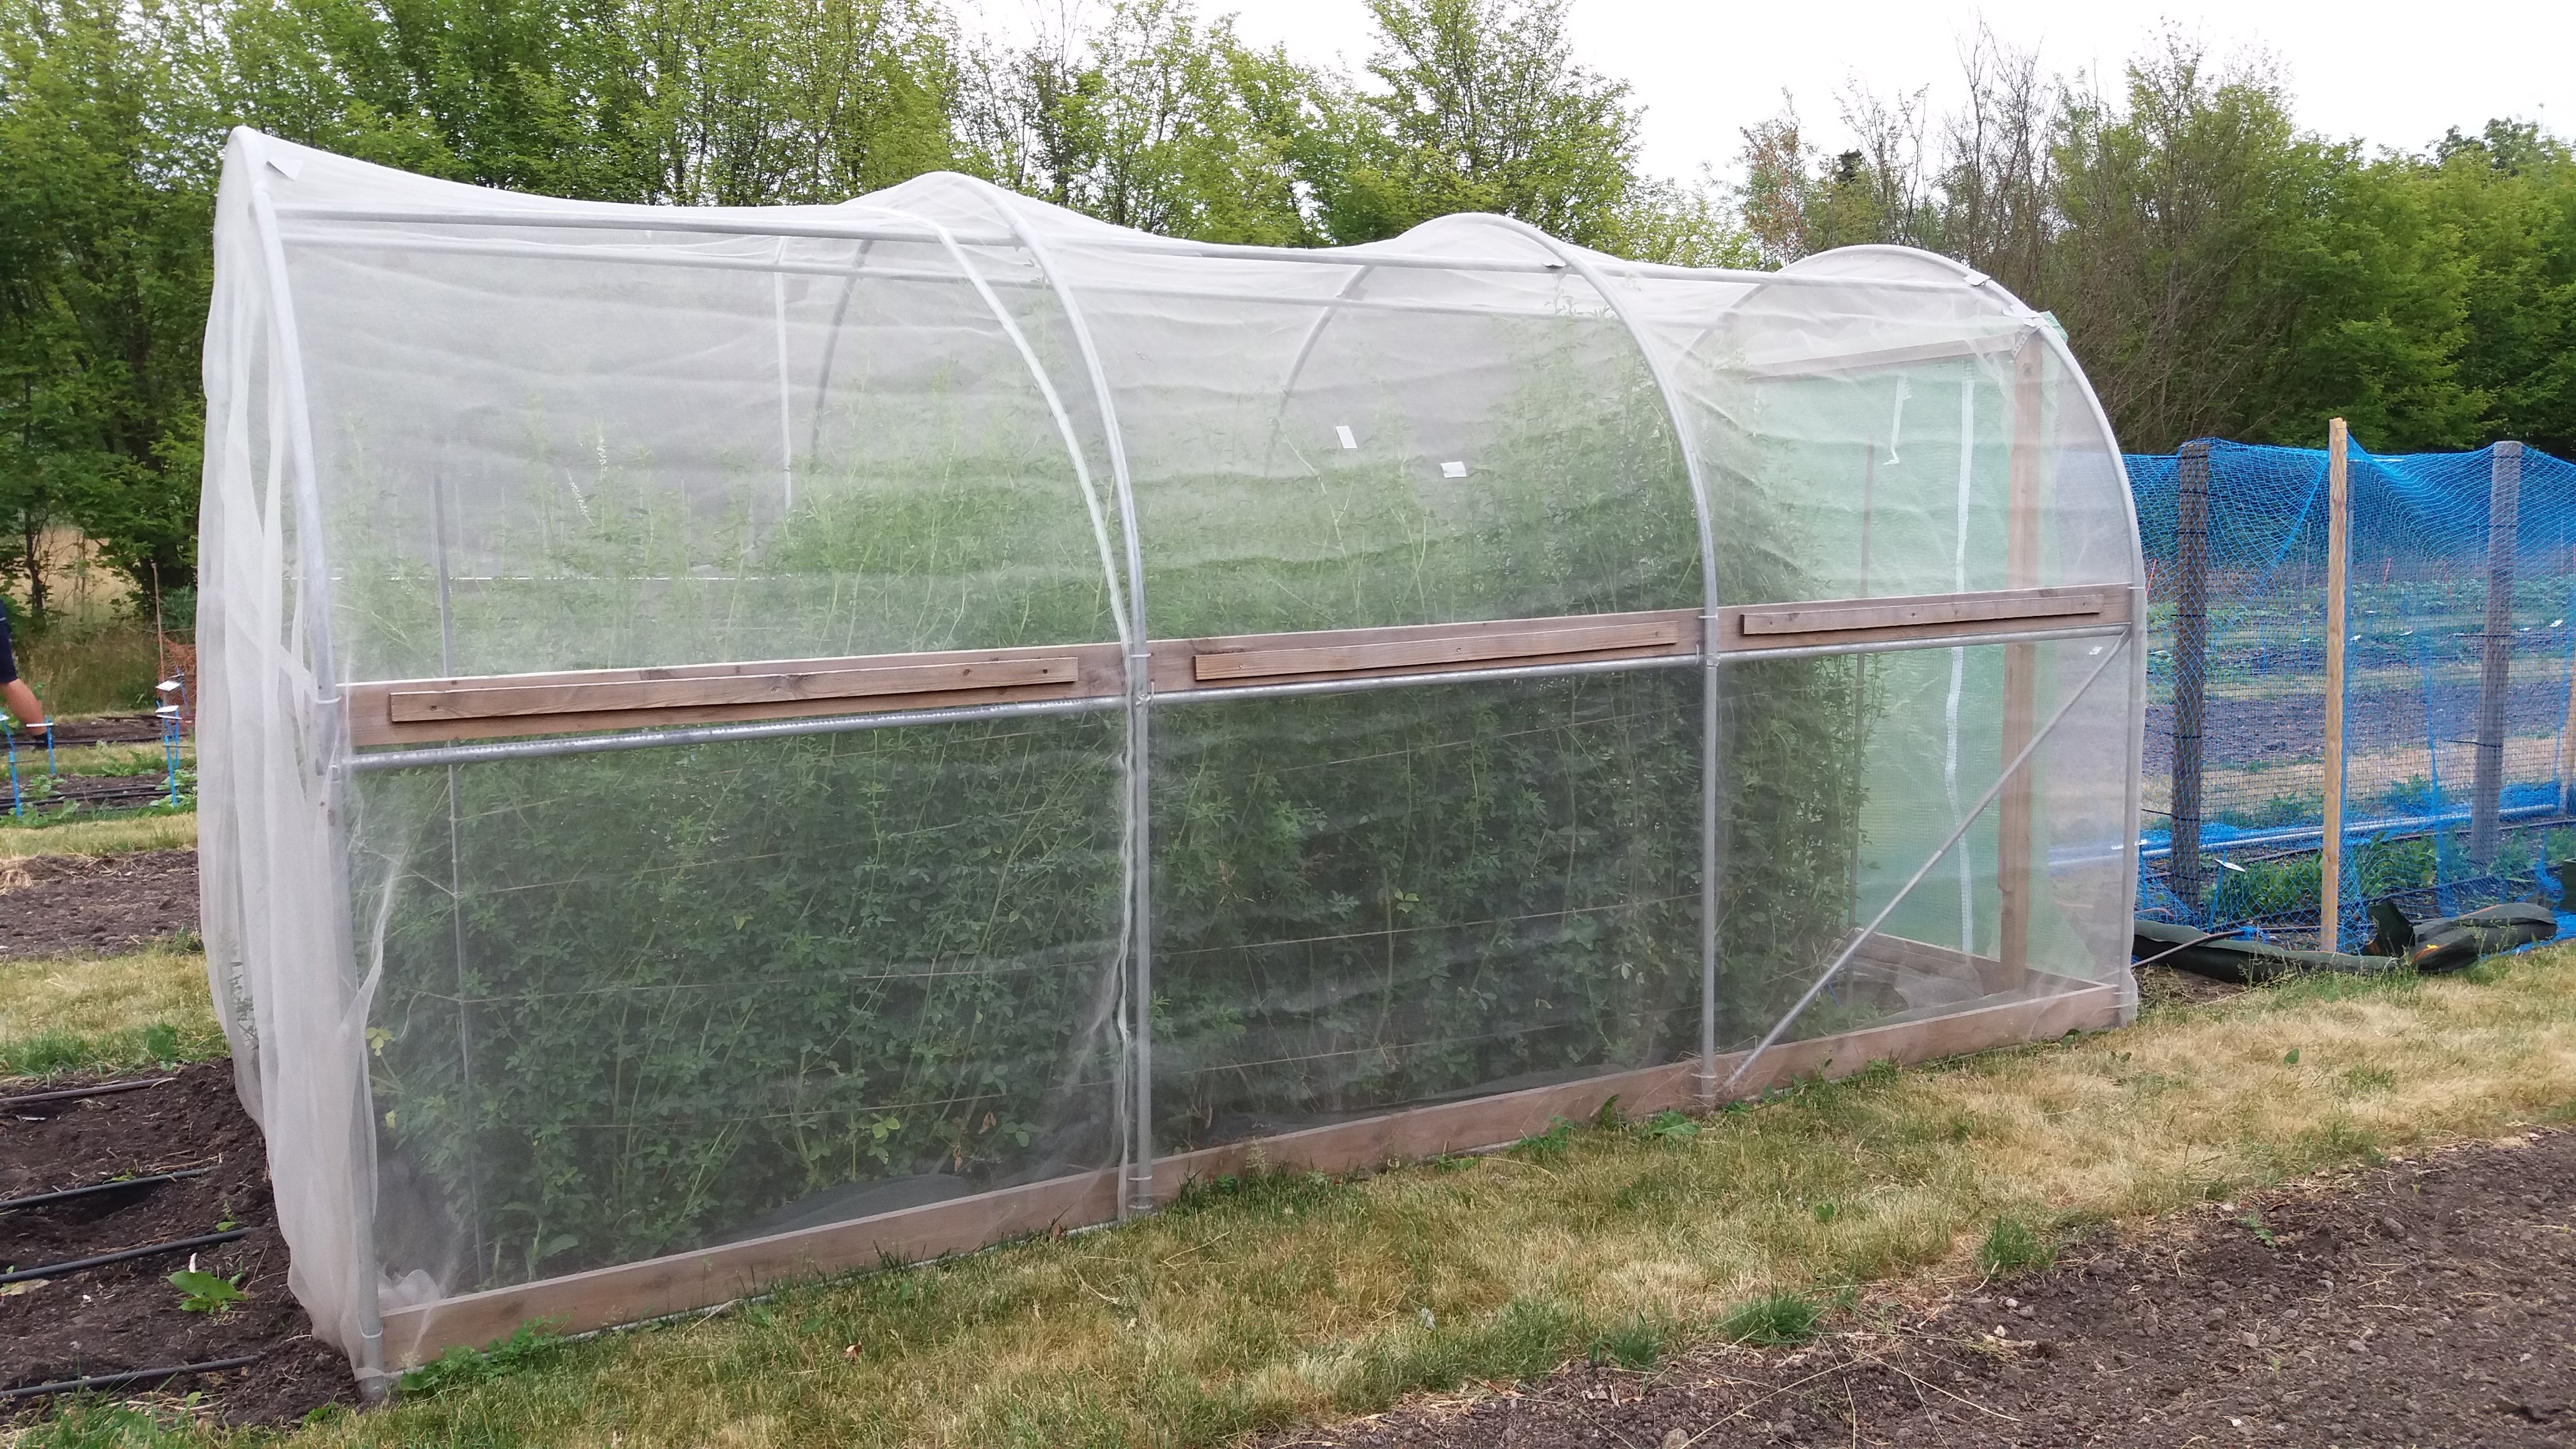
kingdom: Plantae
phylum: Tracheophyta
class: Magnoliopsida
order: Fabales
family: Fabaceae
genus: Melilotus
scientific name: Melilotus albus
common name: White melilot
